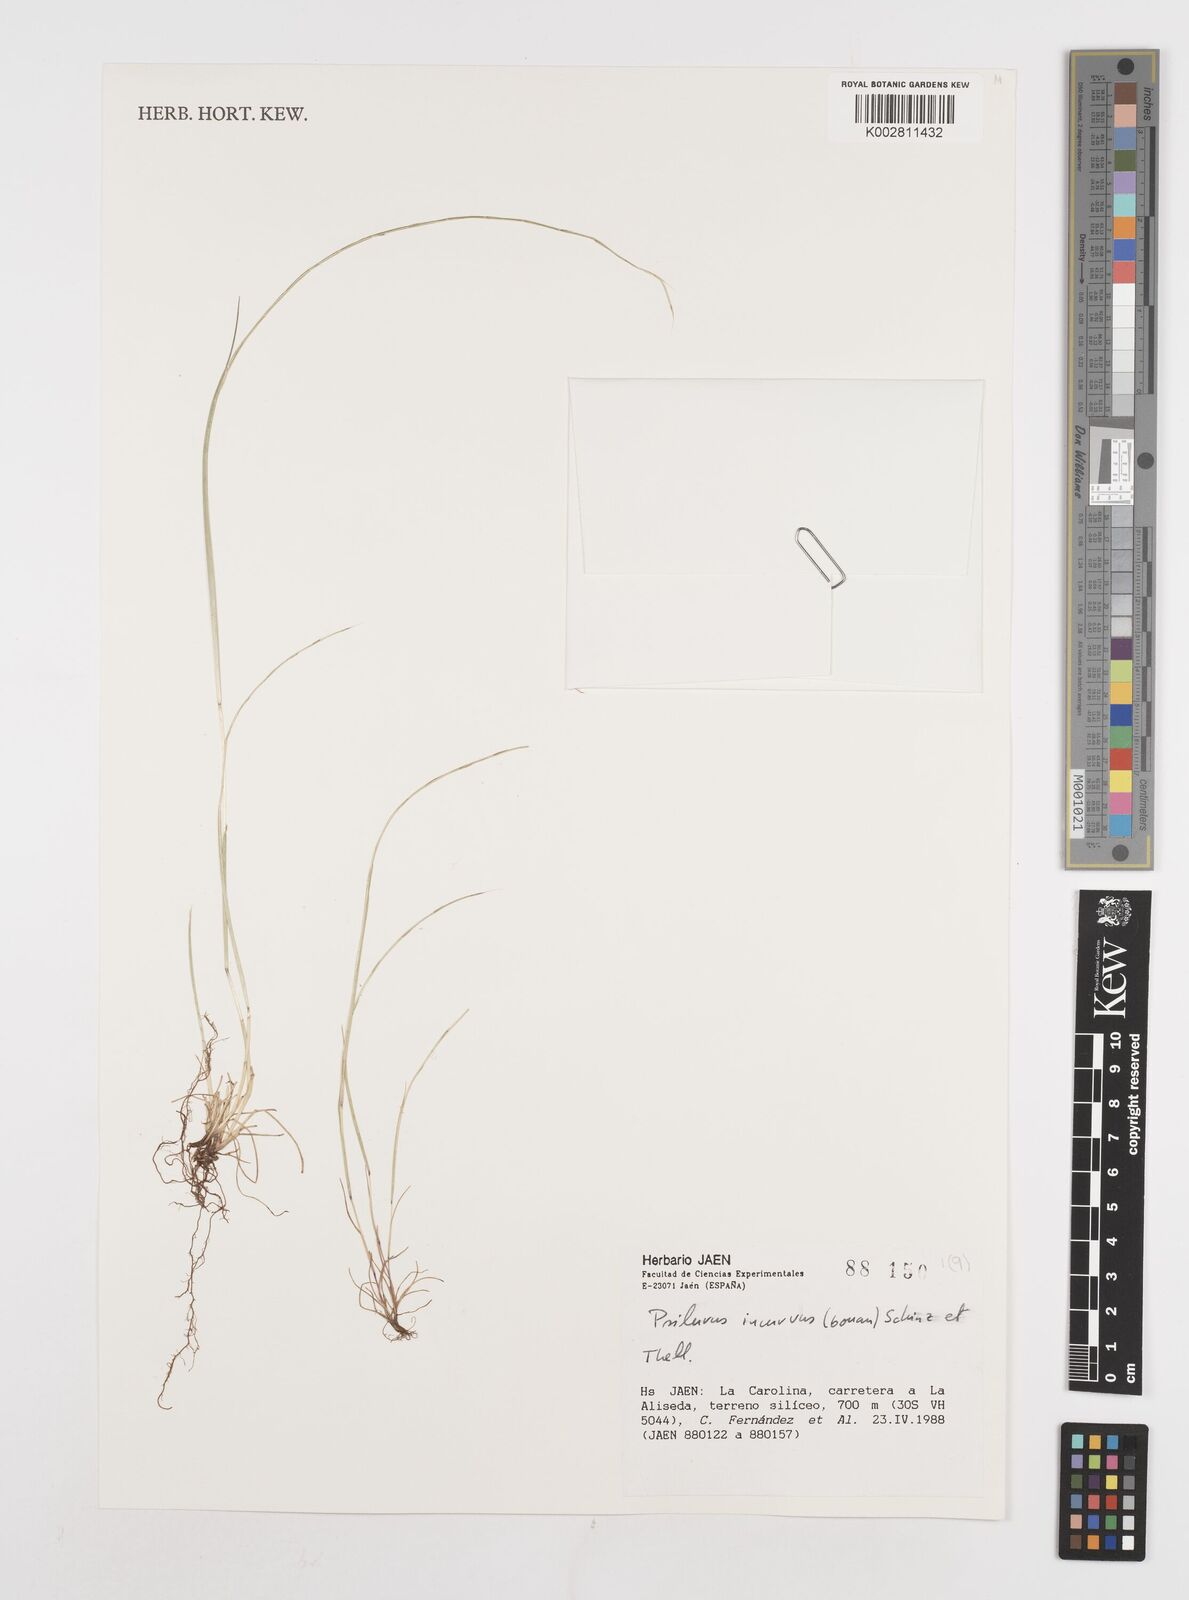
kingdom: Plantae
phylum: Tracheophyta
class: Liliopsida
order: Poales
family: Poaceae
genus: Festuca
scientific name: Festuca incurva
